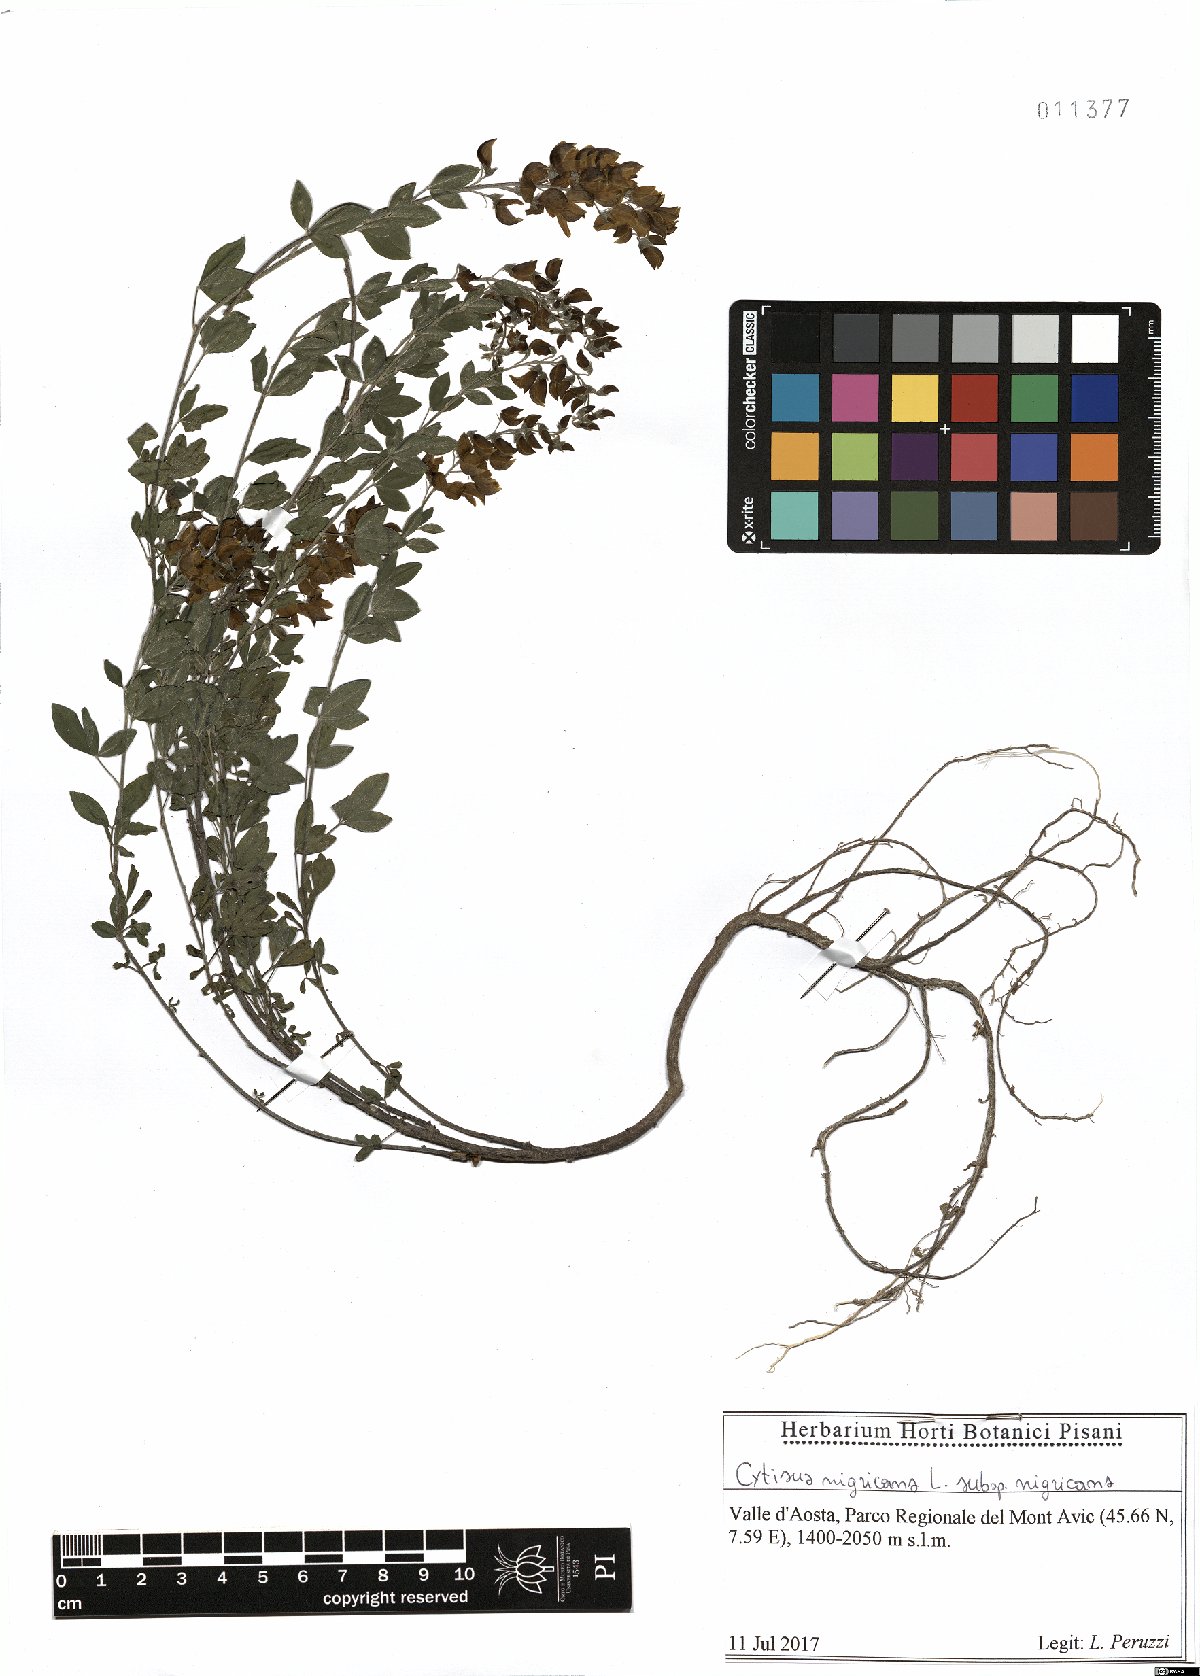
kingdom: Plantae
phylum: Tracheophyta
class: Magnoliopsida
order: Fabales
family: Fabaceae
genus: Cytisus
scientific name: Cytisus nigricans
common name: Black broom
